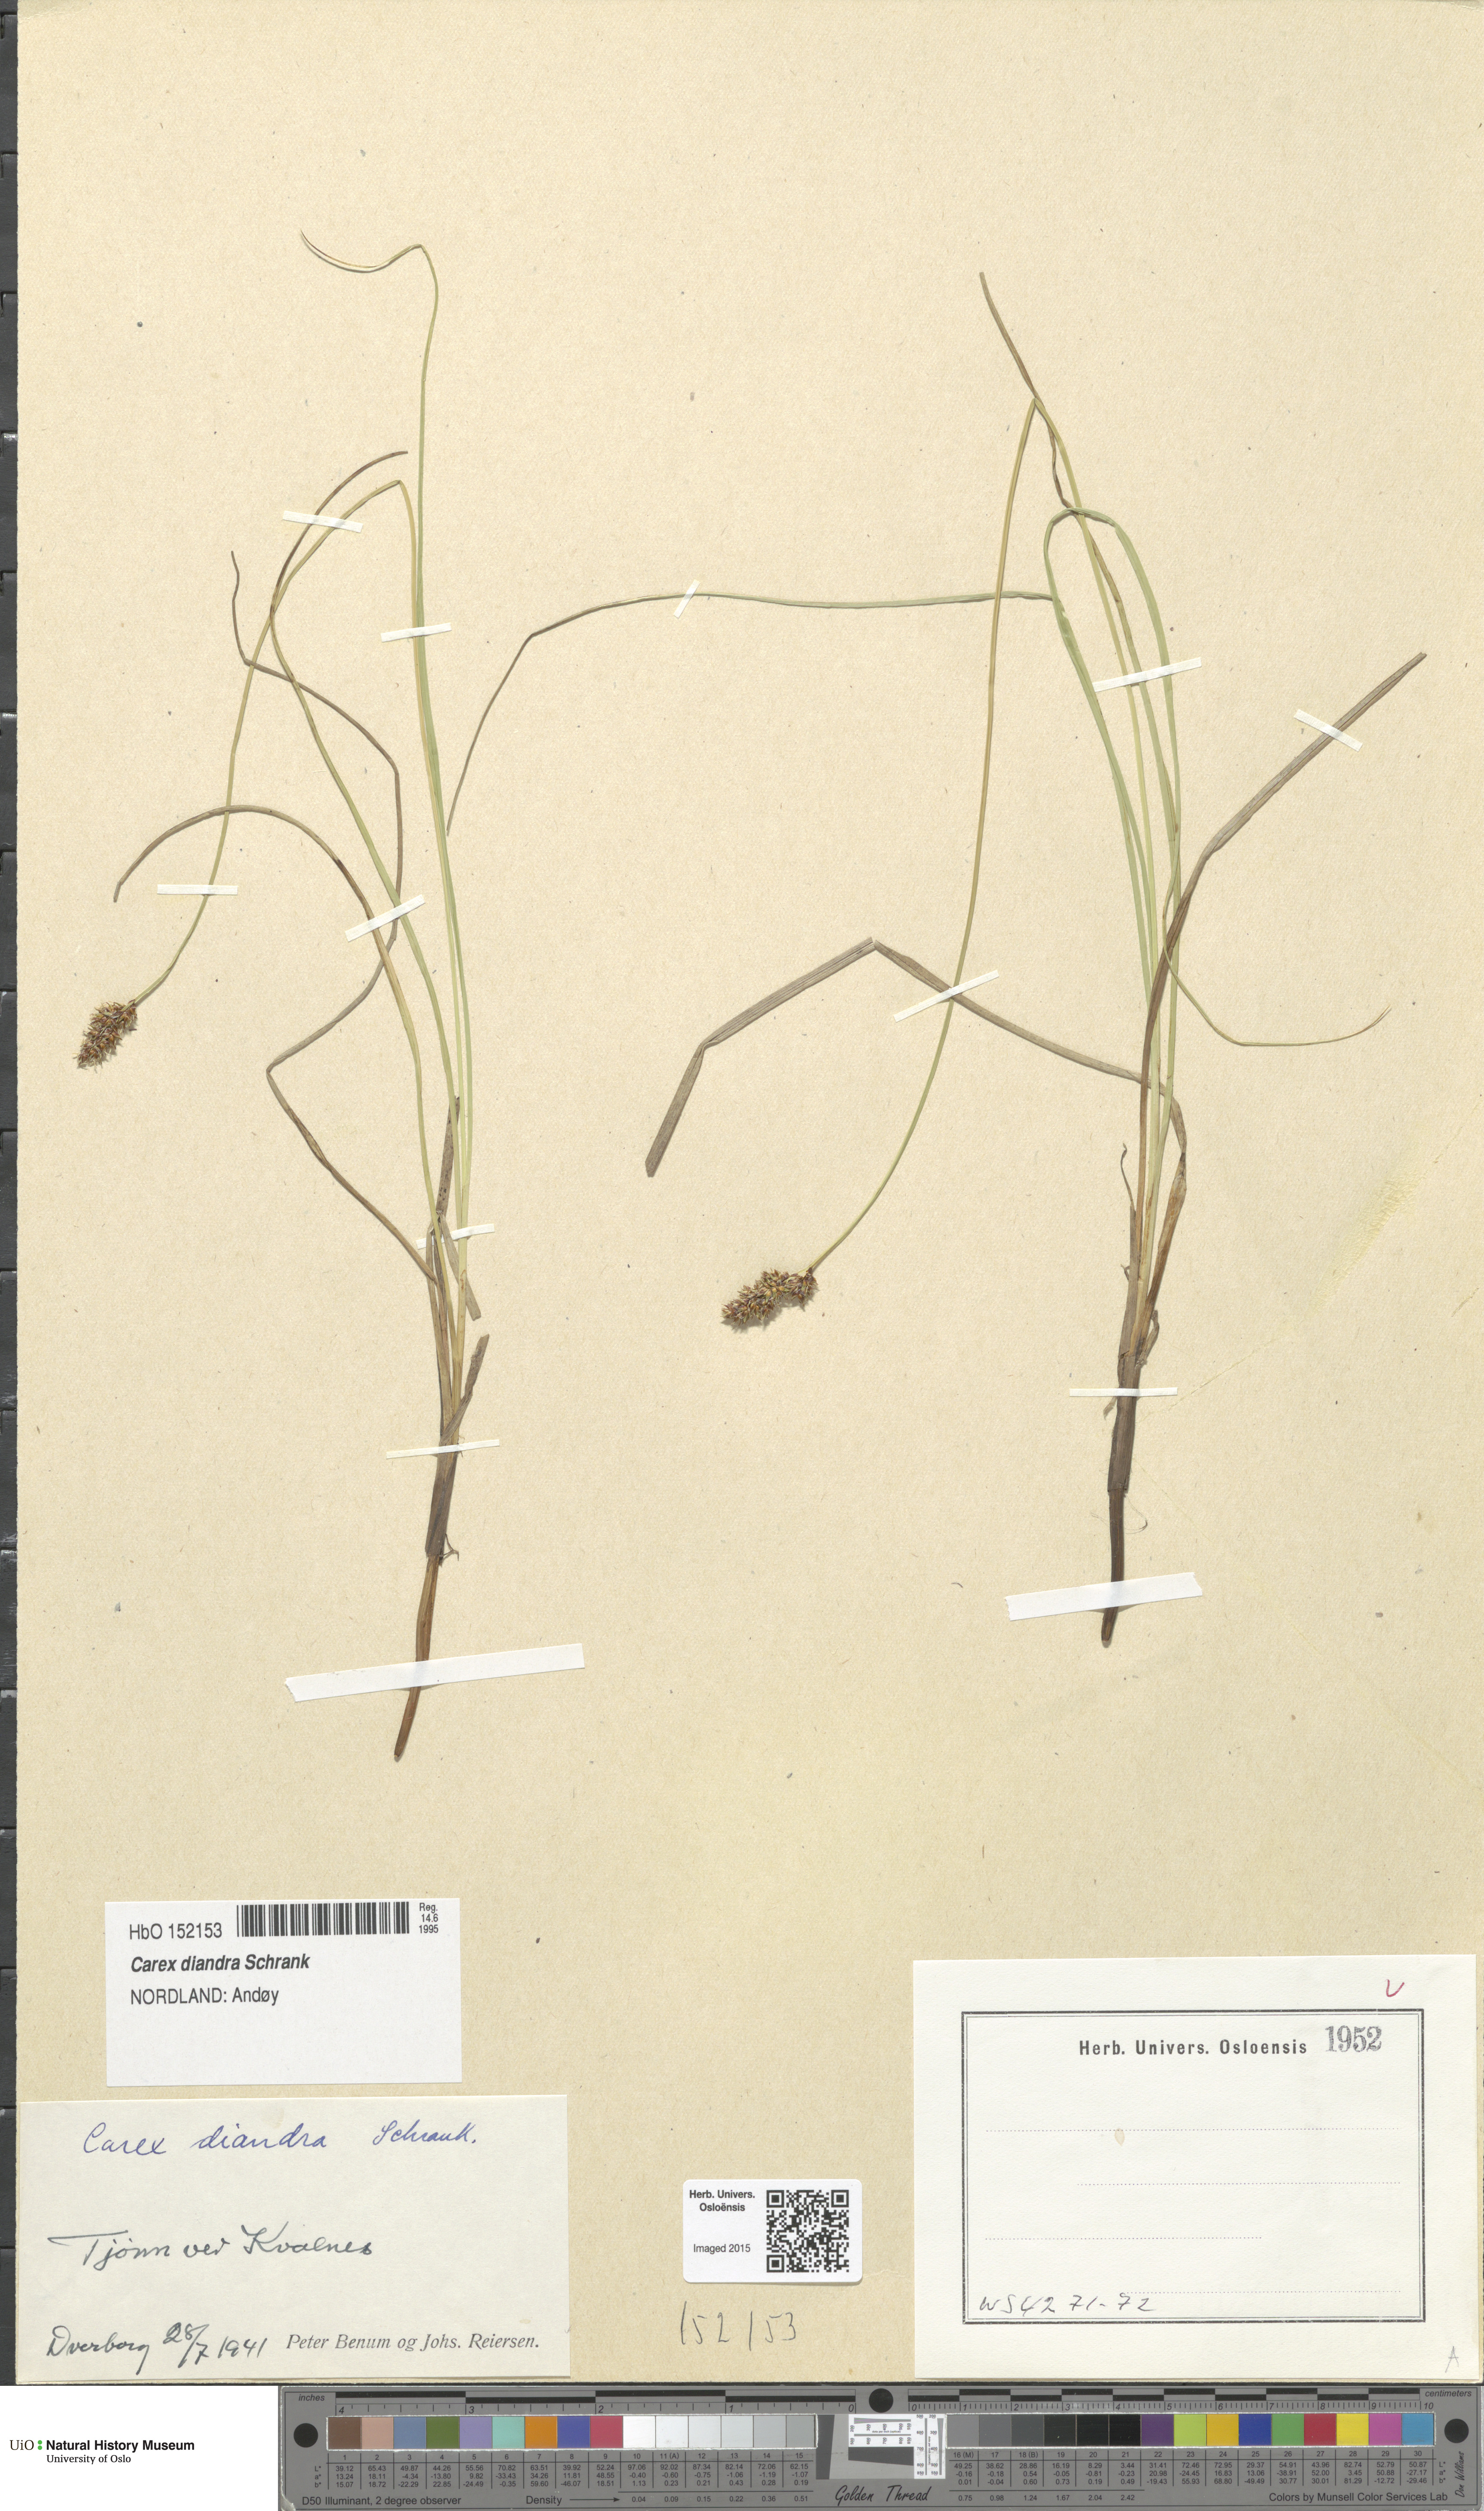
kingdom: Plantae
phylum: Tracheophyta
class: Liliopsida
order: Poales
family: Cyperaceae
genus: Carex
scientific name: Carex diandra
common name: Lesser tussock-sedge
